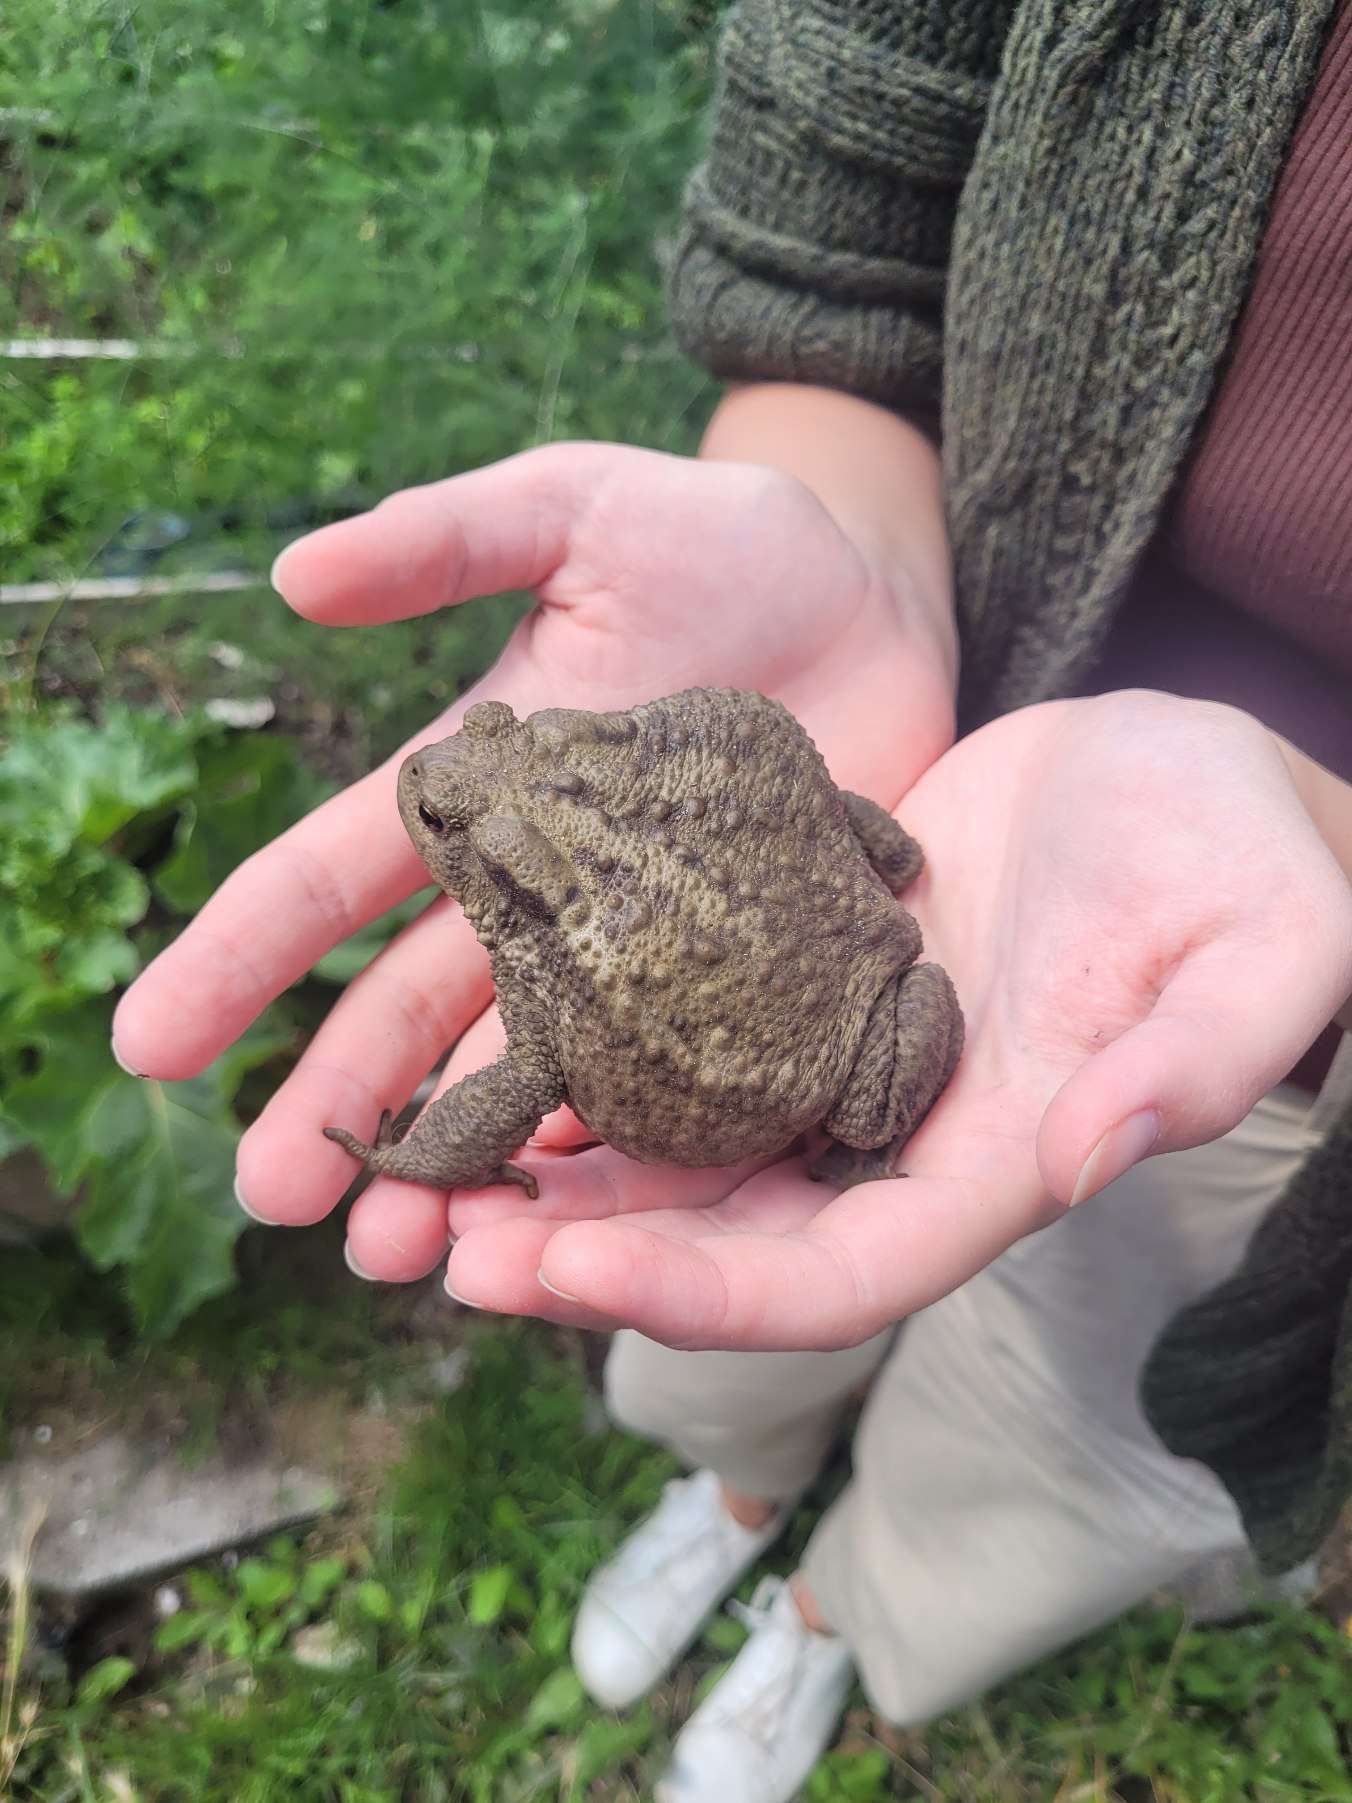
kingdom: Animalia
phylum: Chordata
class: Amphibia
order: Anura
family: Bufonidae
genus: Bufo
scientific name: Bufo bufo
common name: Skrubtudse
